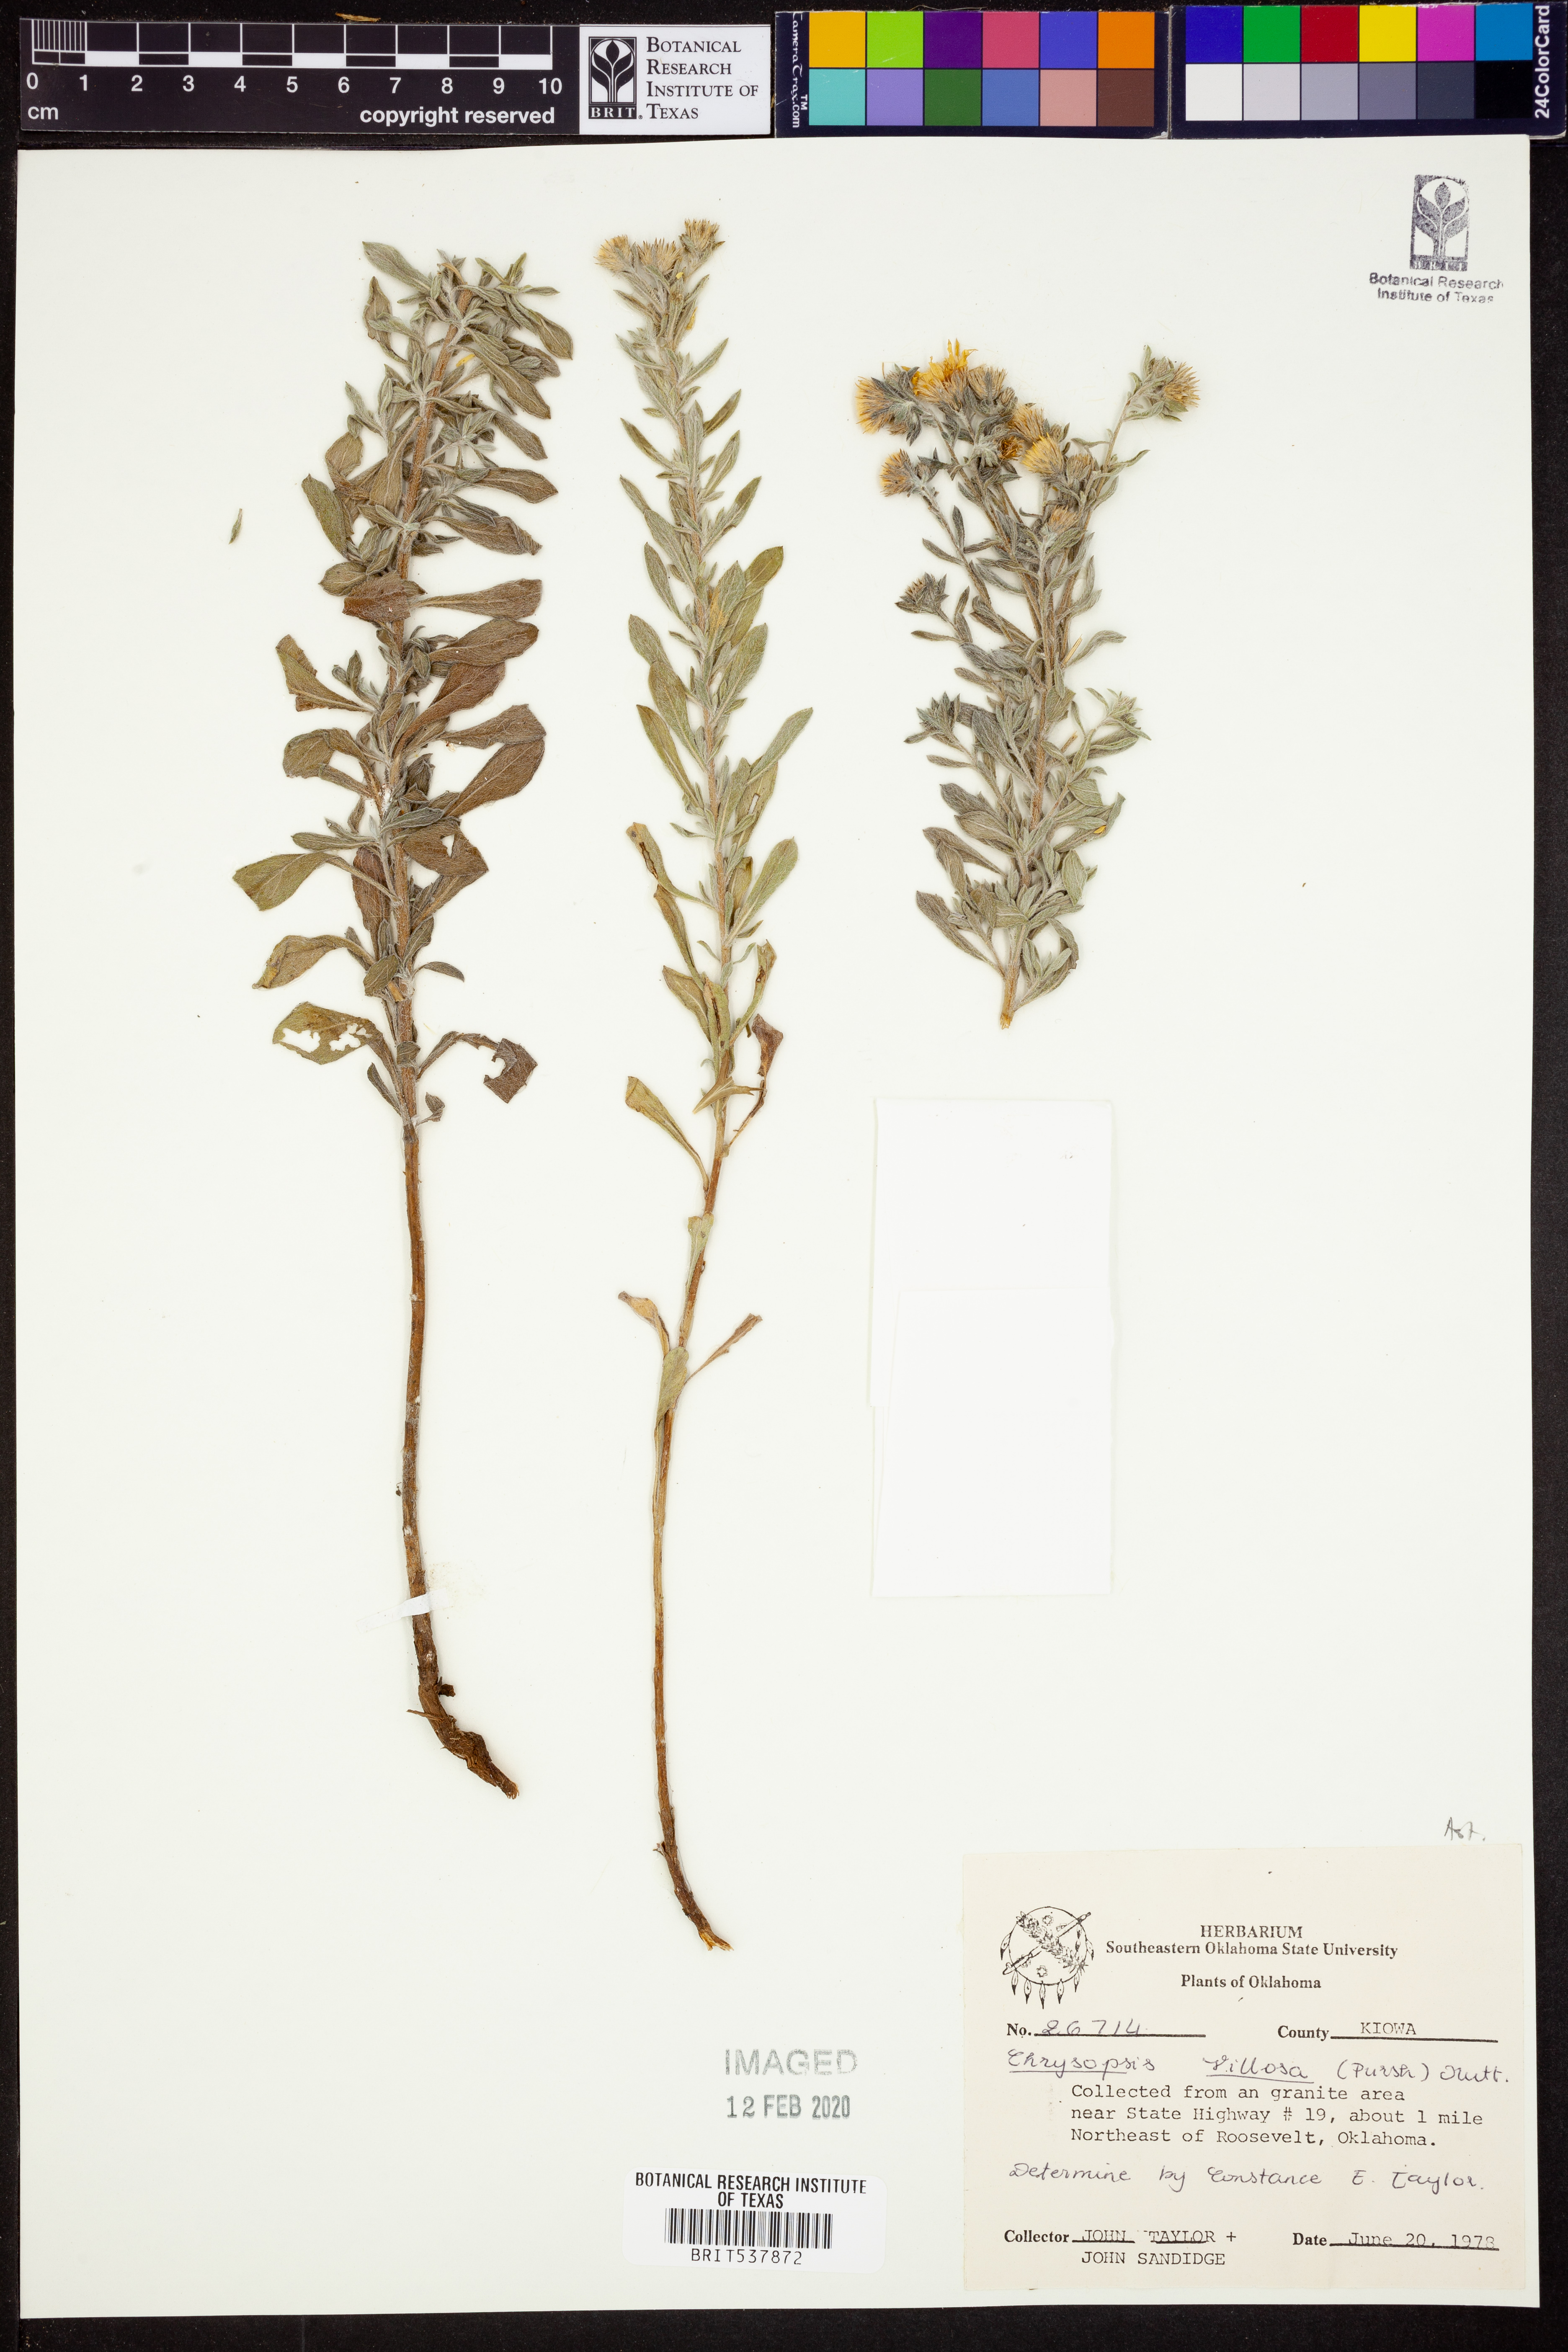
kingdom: Plantae
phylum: Tracheophyta
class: Magnoliopsida
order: Asterales
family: Asteraceae
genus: Bradburia
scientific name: Bradburia pilosa
